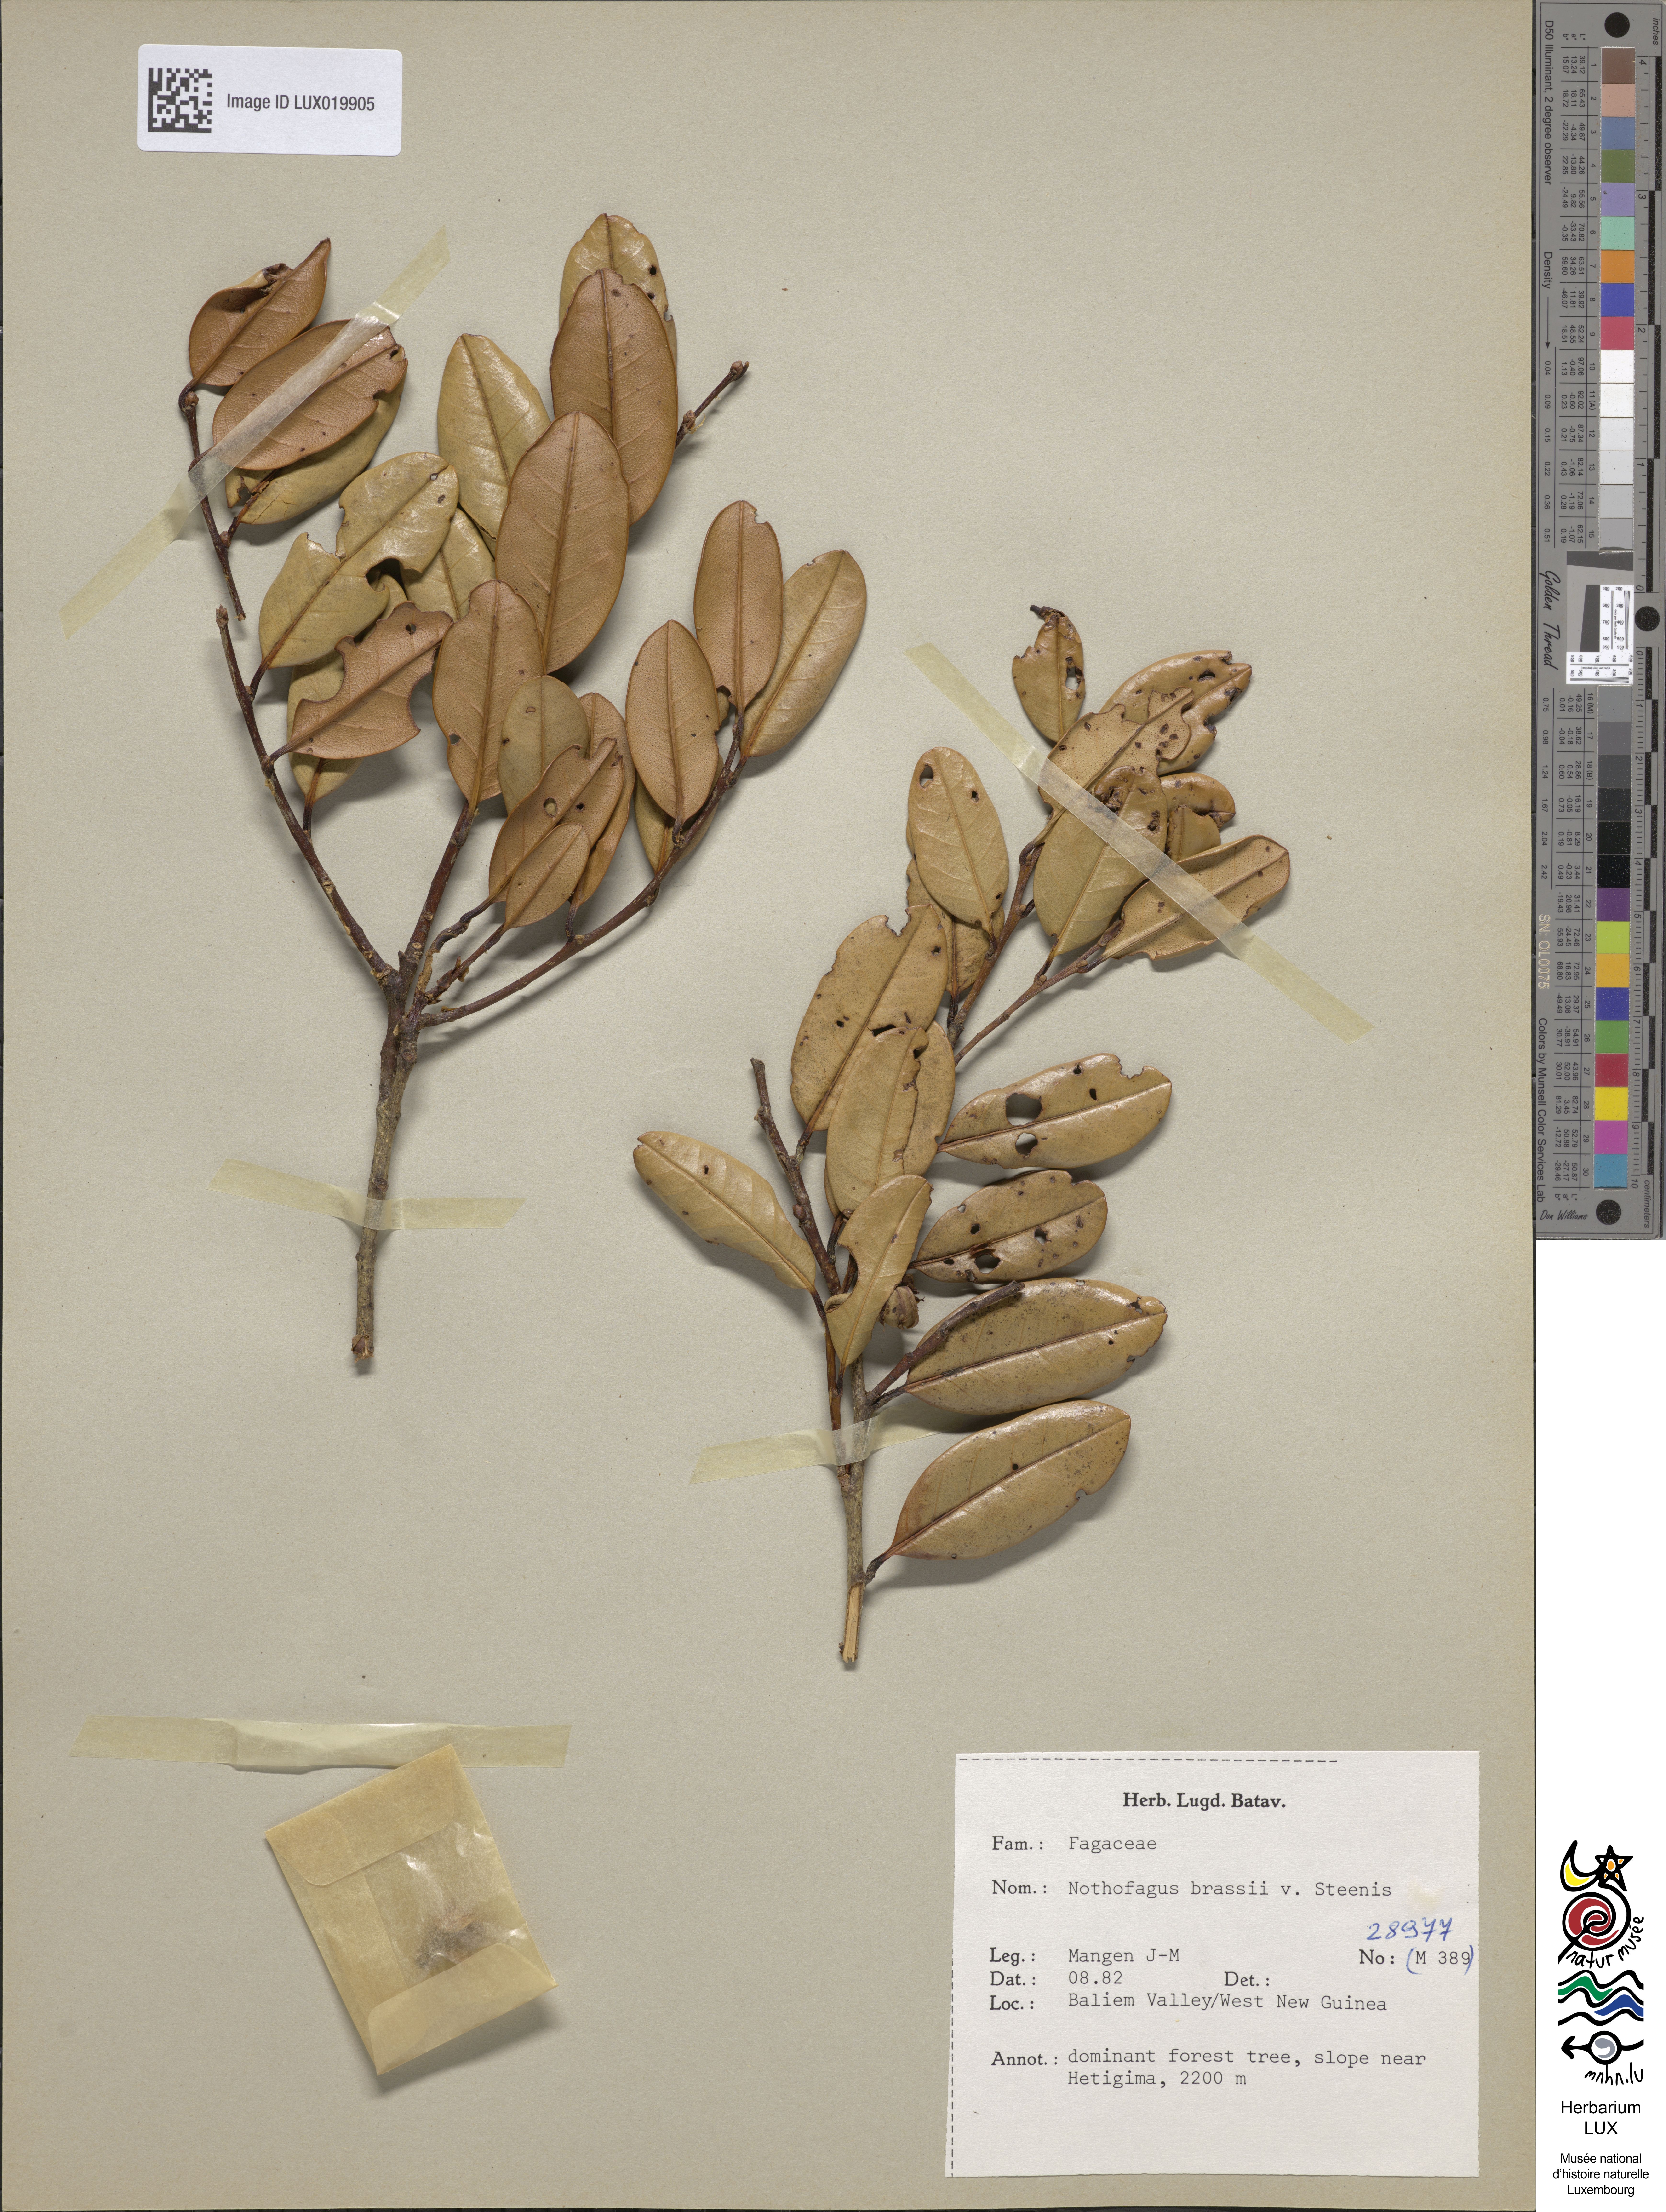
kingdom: Plantae
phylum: Tracheophyta
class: Magnoliopsida
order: Fagales
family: Nothofagaceae
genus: Nothofagus
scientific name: Nothofagus brassii
